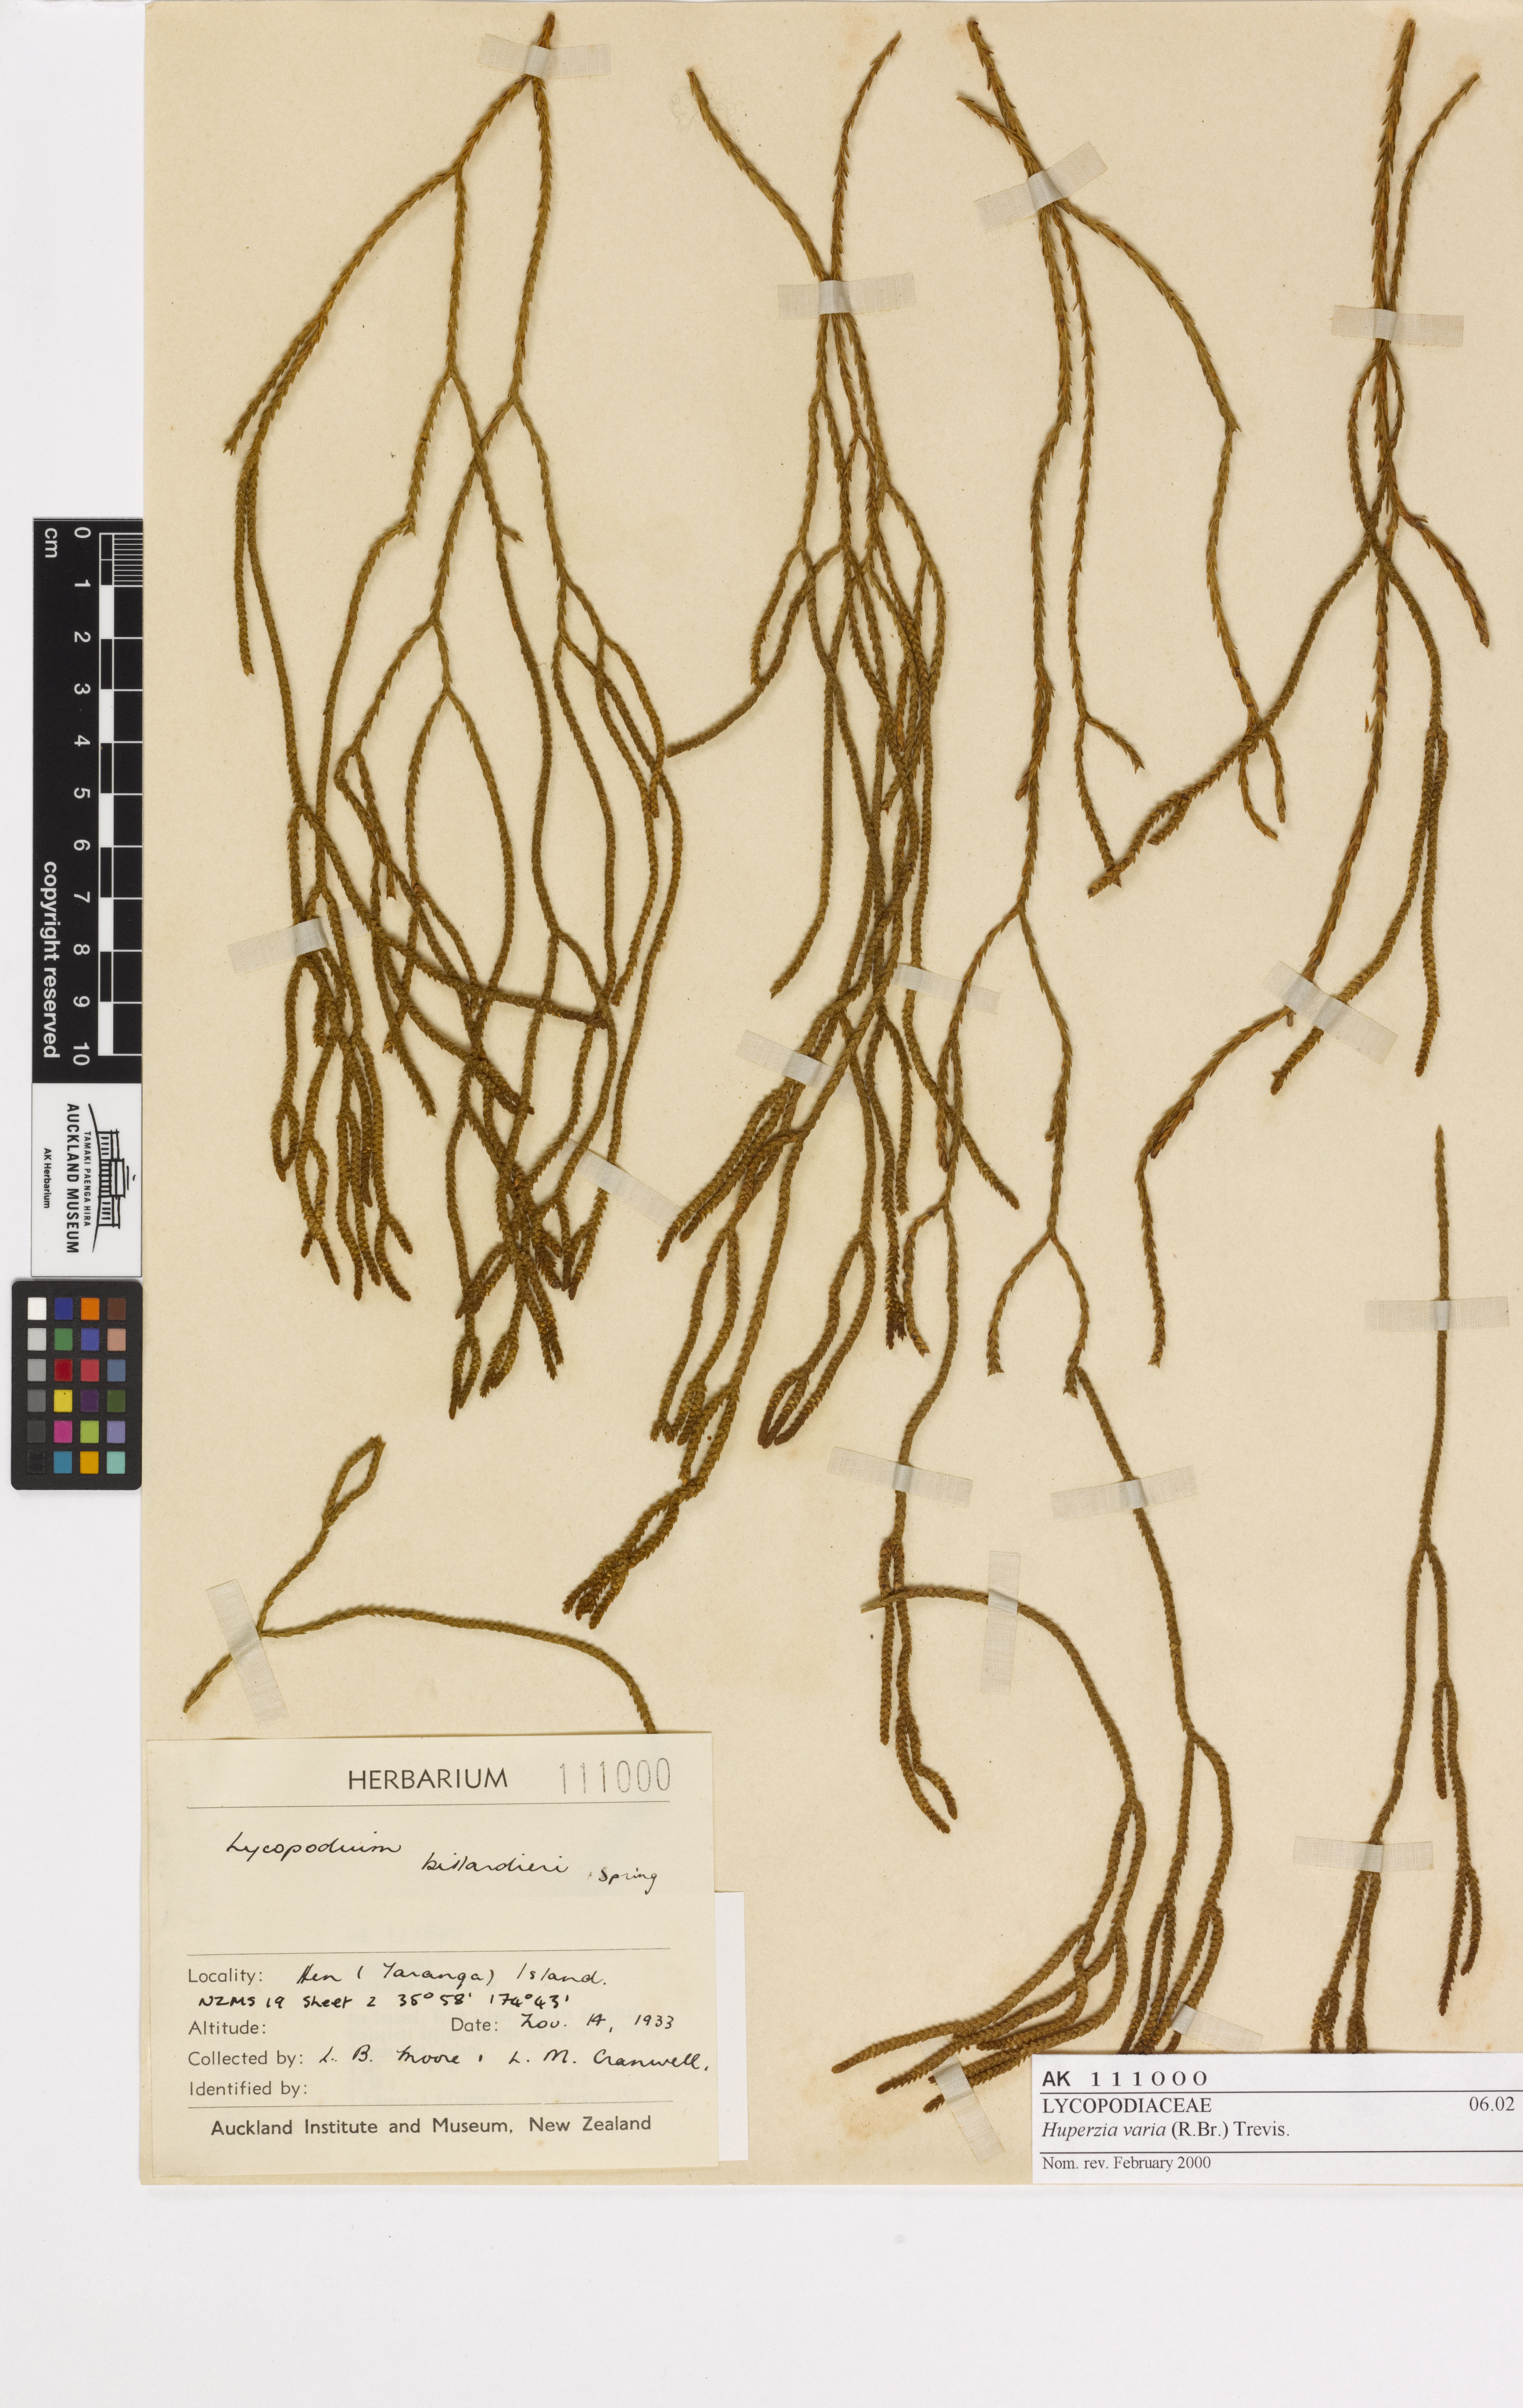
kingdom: Plantae
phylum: Tracheophyta
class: Lycopodiopsida
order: Lycopodiales
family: Lycopodiaceae
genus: Phlegmariurus
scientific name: Phlegmariurus billardierei
